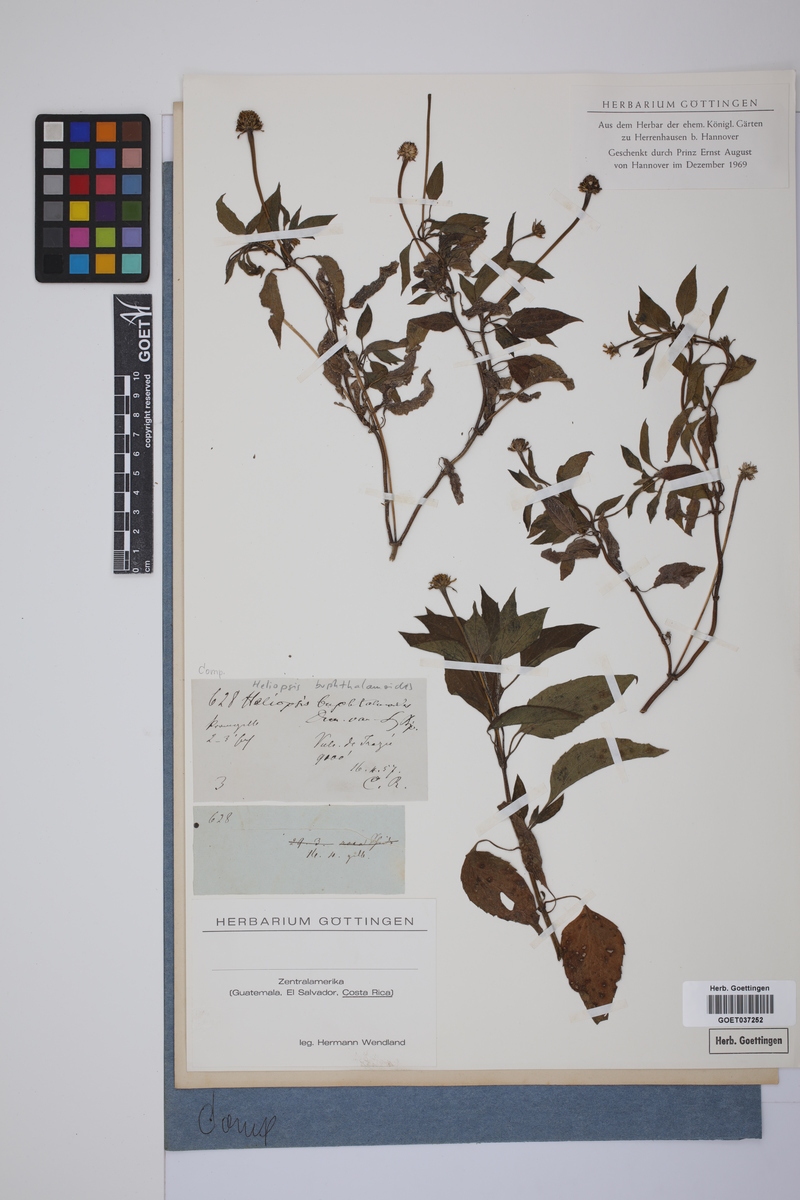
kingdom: Plantae
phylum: Tracheophyta
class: Magnoliopsida
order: Asterales
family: Asteraceae
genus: Heliopsis
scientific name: Heliopsis buphthalmoides
